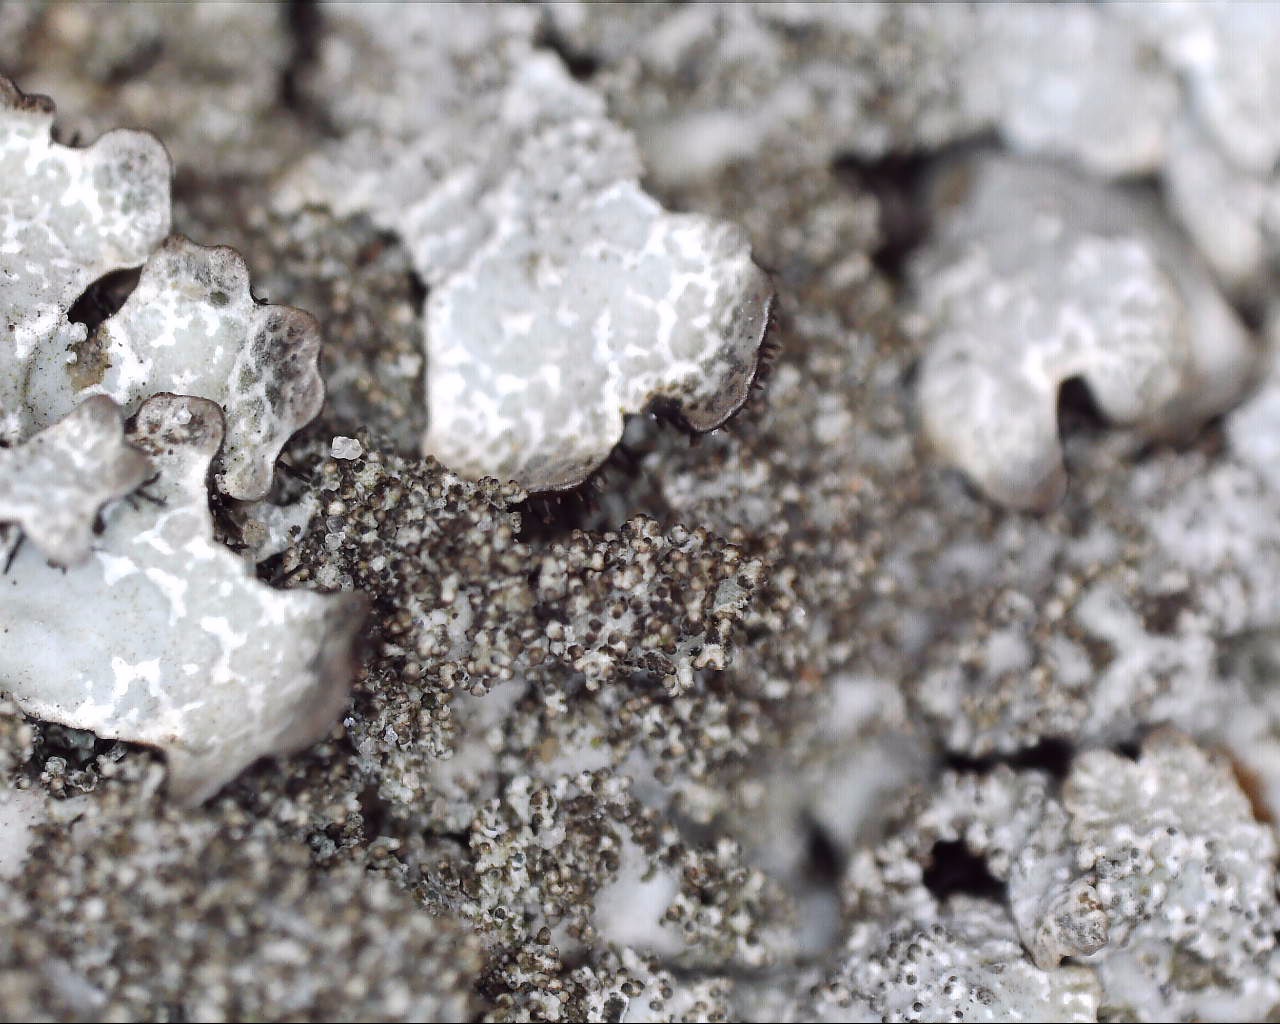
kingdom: Fungi
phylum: Ascomycota
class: Lecanoromycetes
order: Lecanorales
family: Parmeliaceae
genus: Parmelia
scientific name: Parmelia saxatilis
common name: farve-skållav
